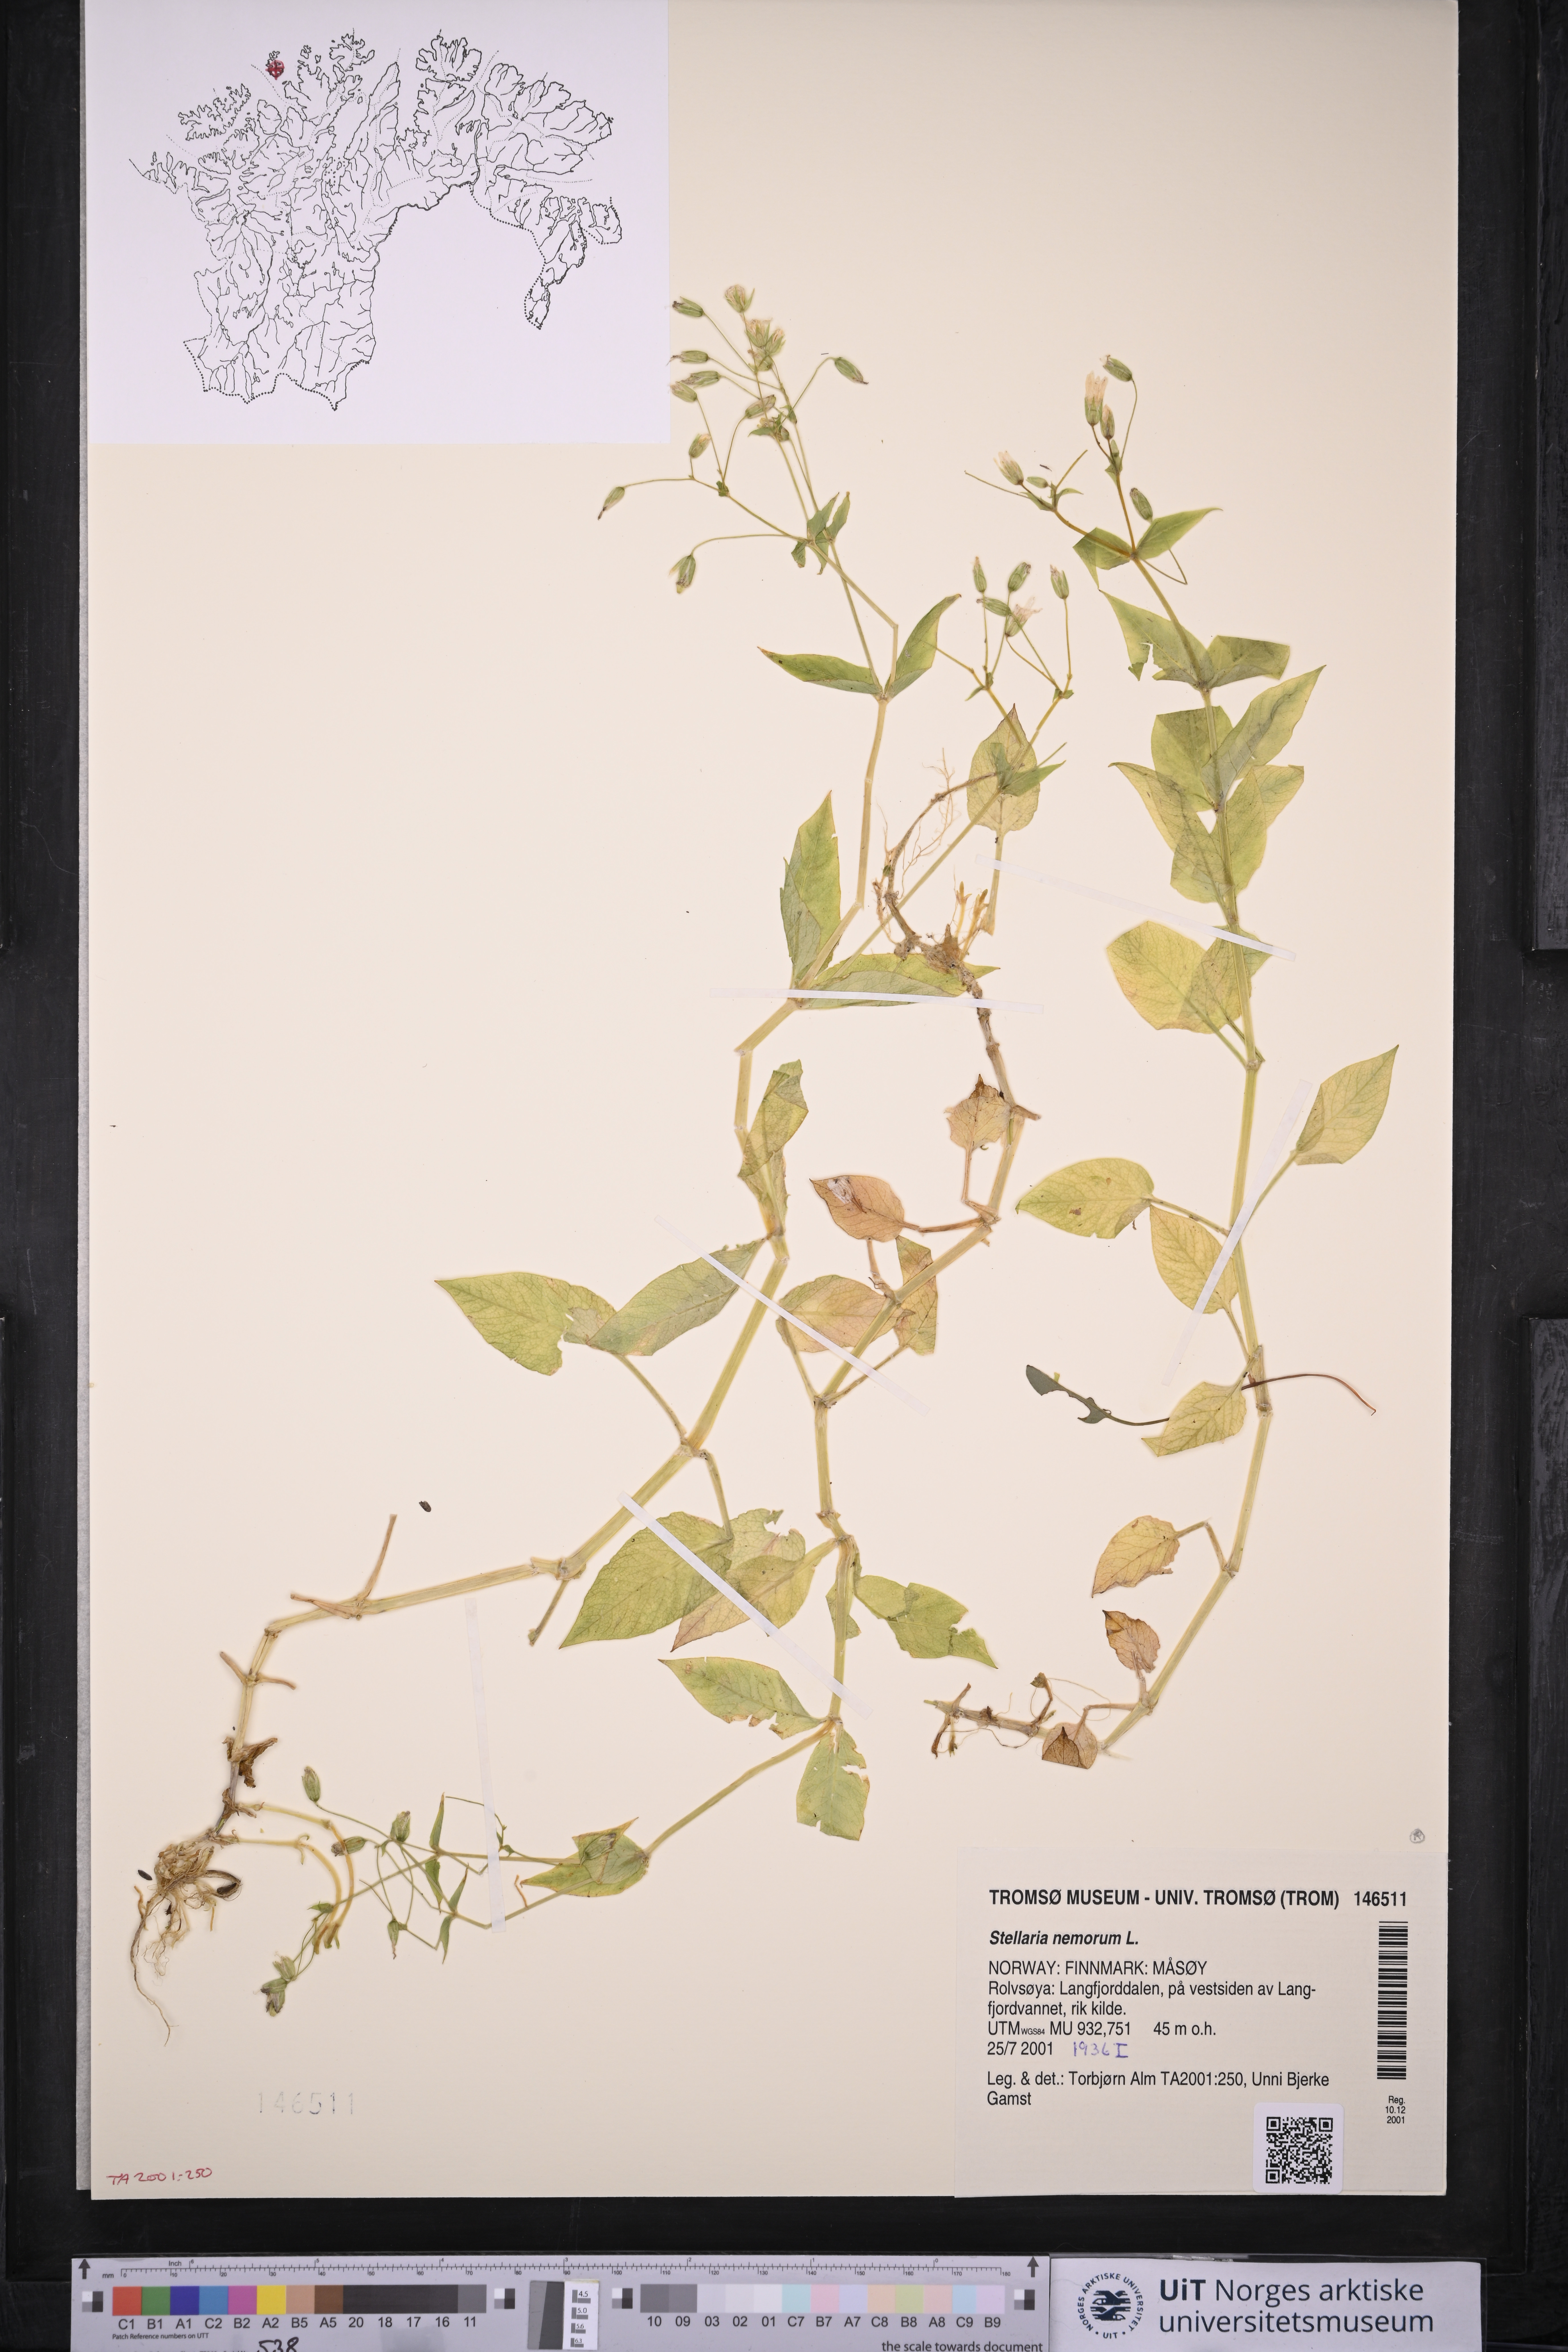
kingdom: Plantae
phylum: Tracheophyta
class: Magnoliopsida
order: Caryophyllales
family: Caryophyllaceae
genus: Stellaria
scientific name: Stellaria nemorum
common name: Wood stitchwort
